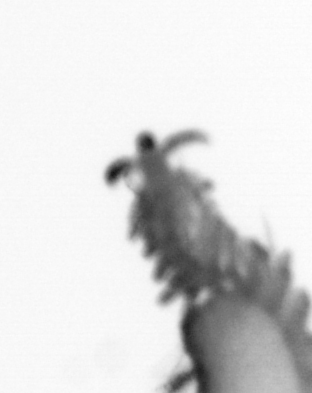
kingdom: Animalia
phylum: Annelida
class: Polychaeta
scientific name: Polychaeta
